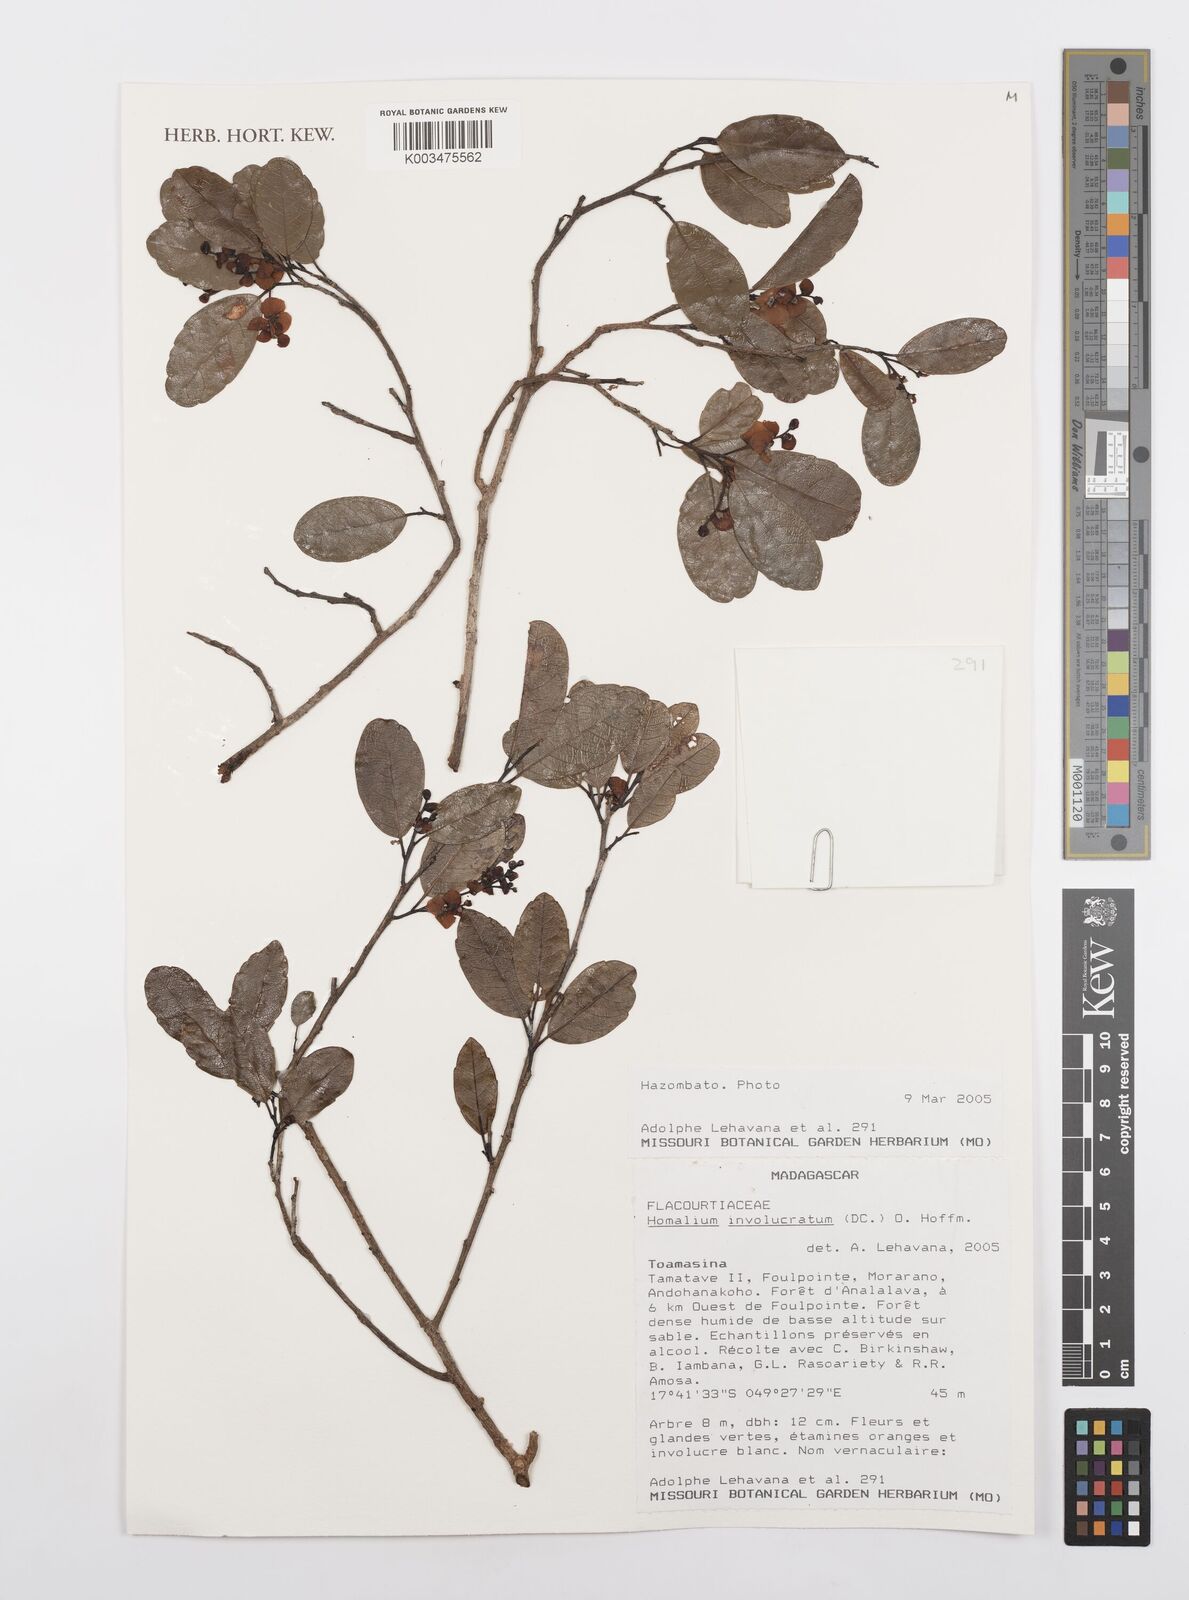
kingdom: Plantae
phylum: Tracheophyta
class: Magnoliopsida
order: Malpighiales
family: Salicaceae
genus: Homalium
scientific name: Homalium involucratum
